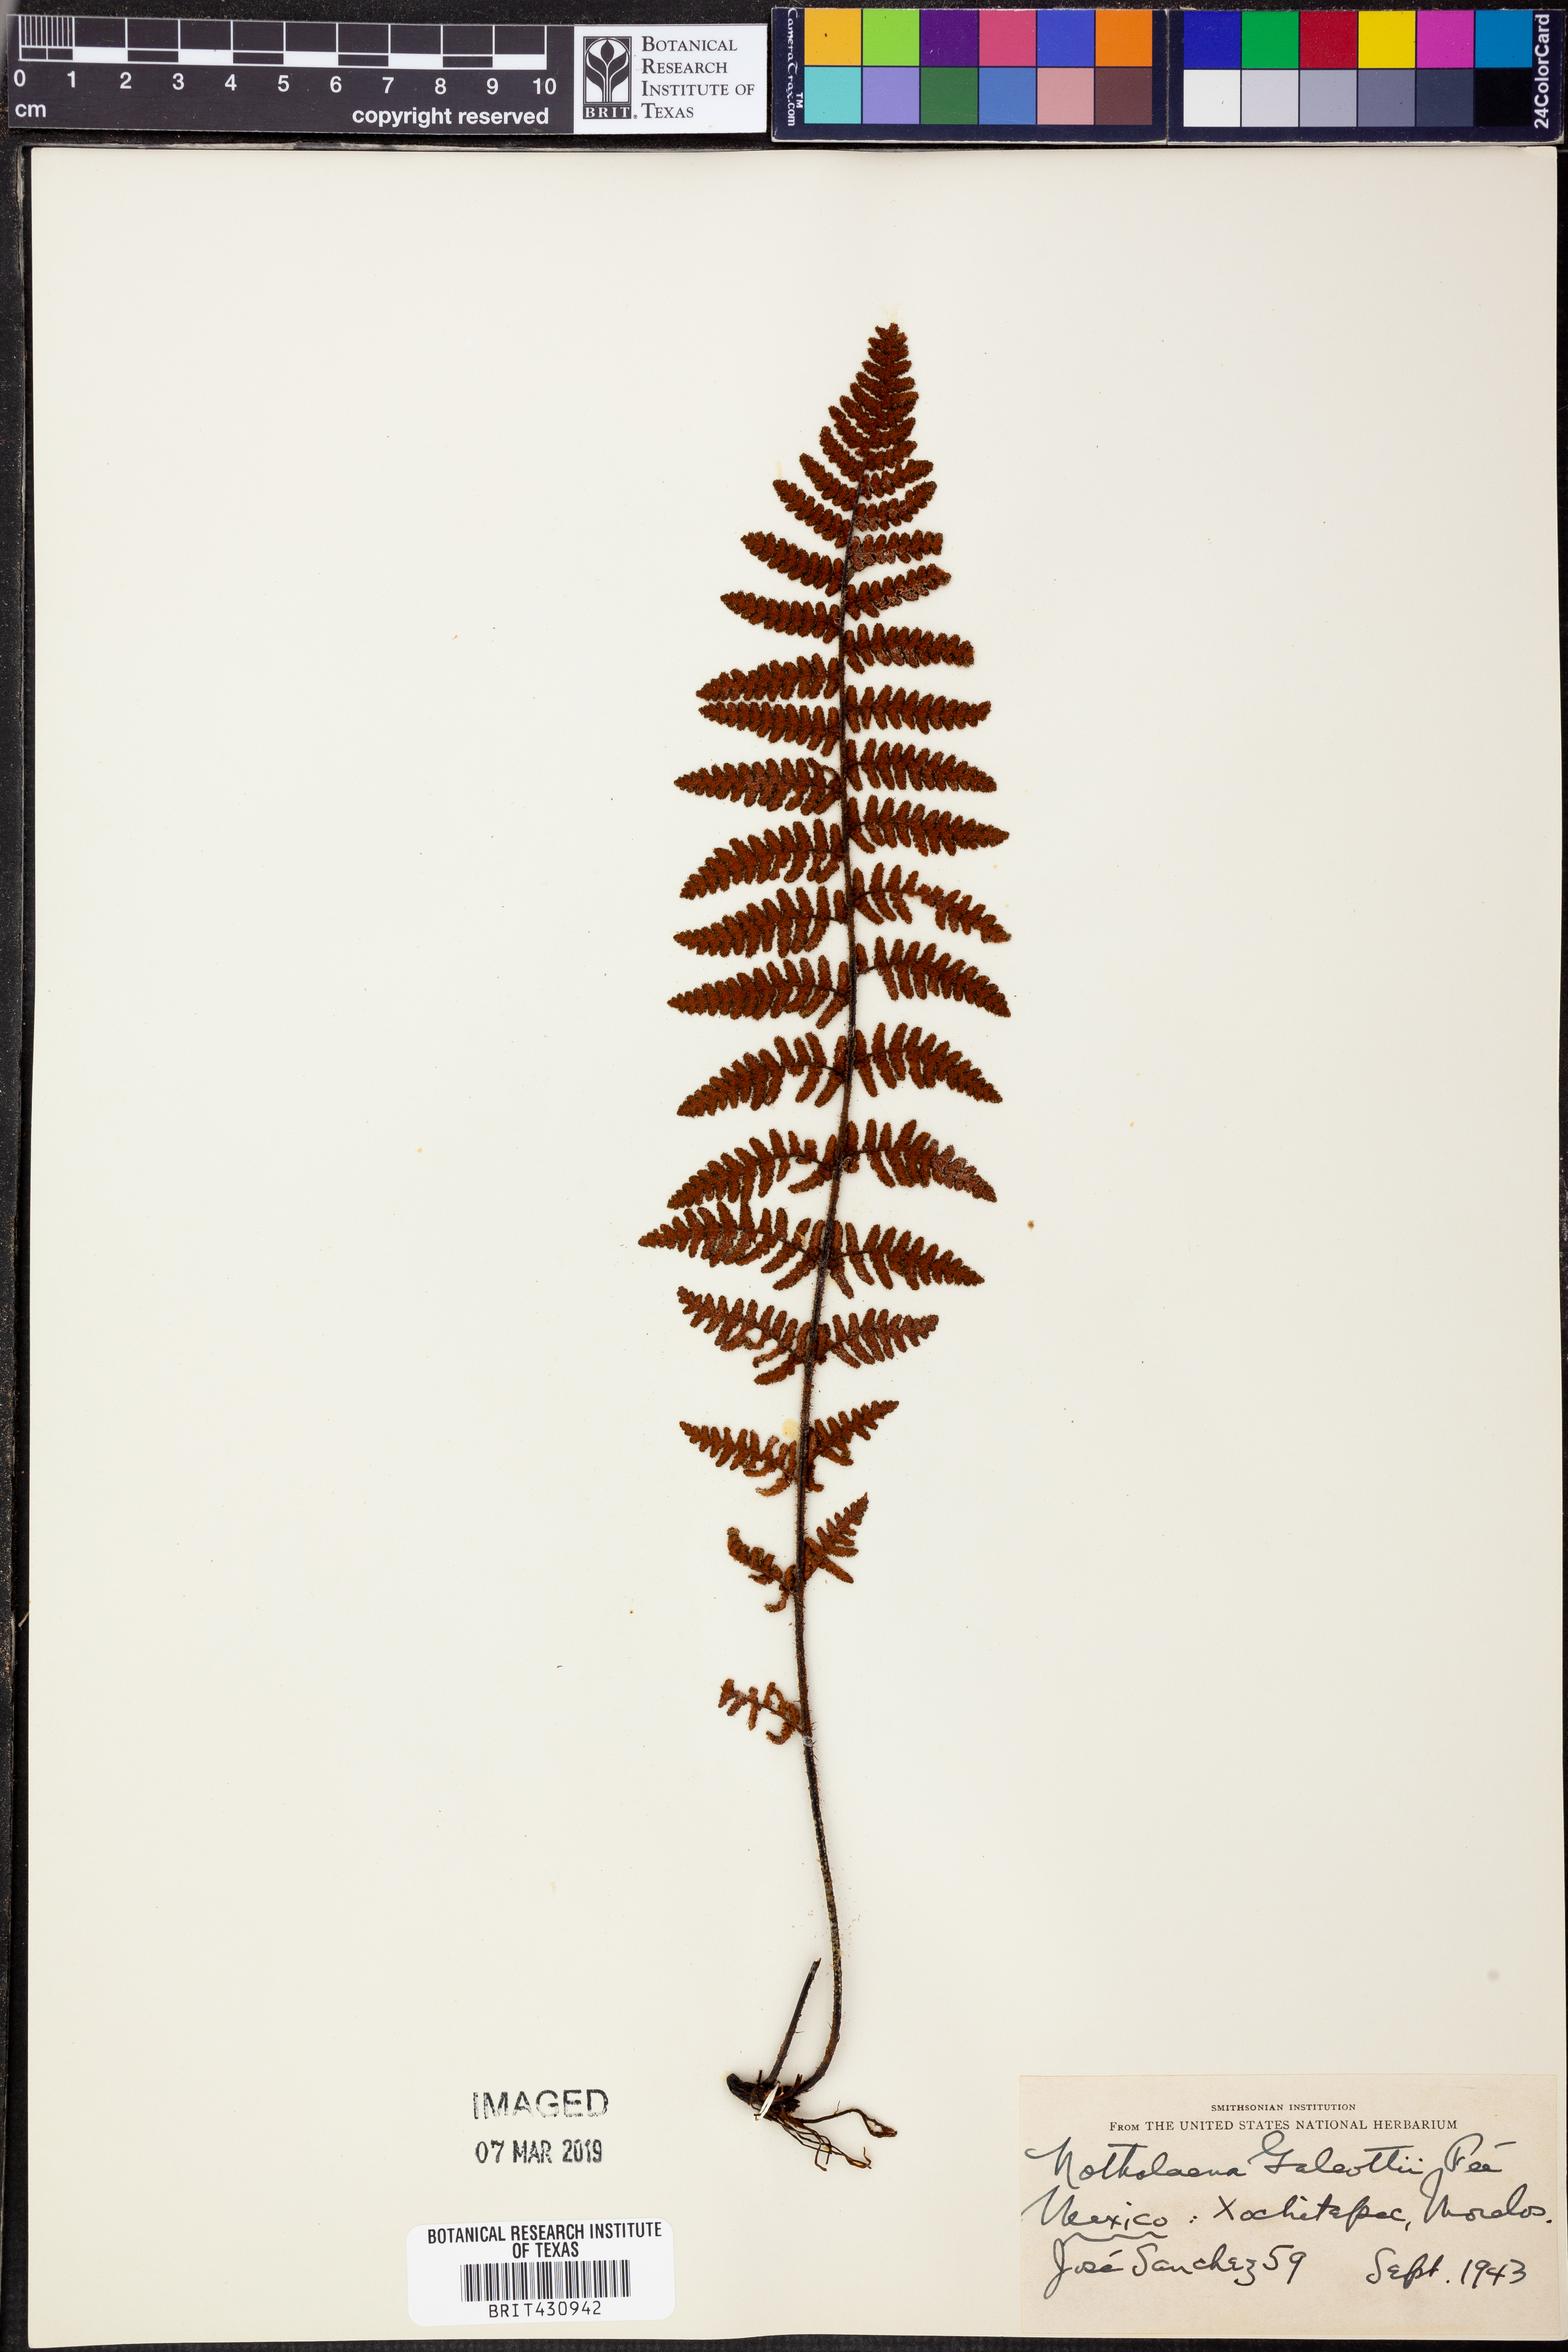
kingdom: Plantae
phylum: Tracheophyta
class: Polypodiopsida
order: Polypodiales
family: Pteridaceae
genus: Notholaena
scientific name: Notholaena galeottii
